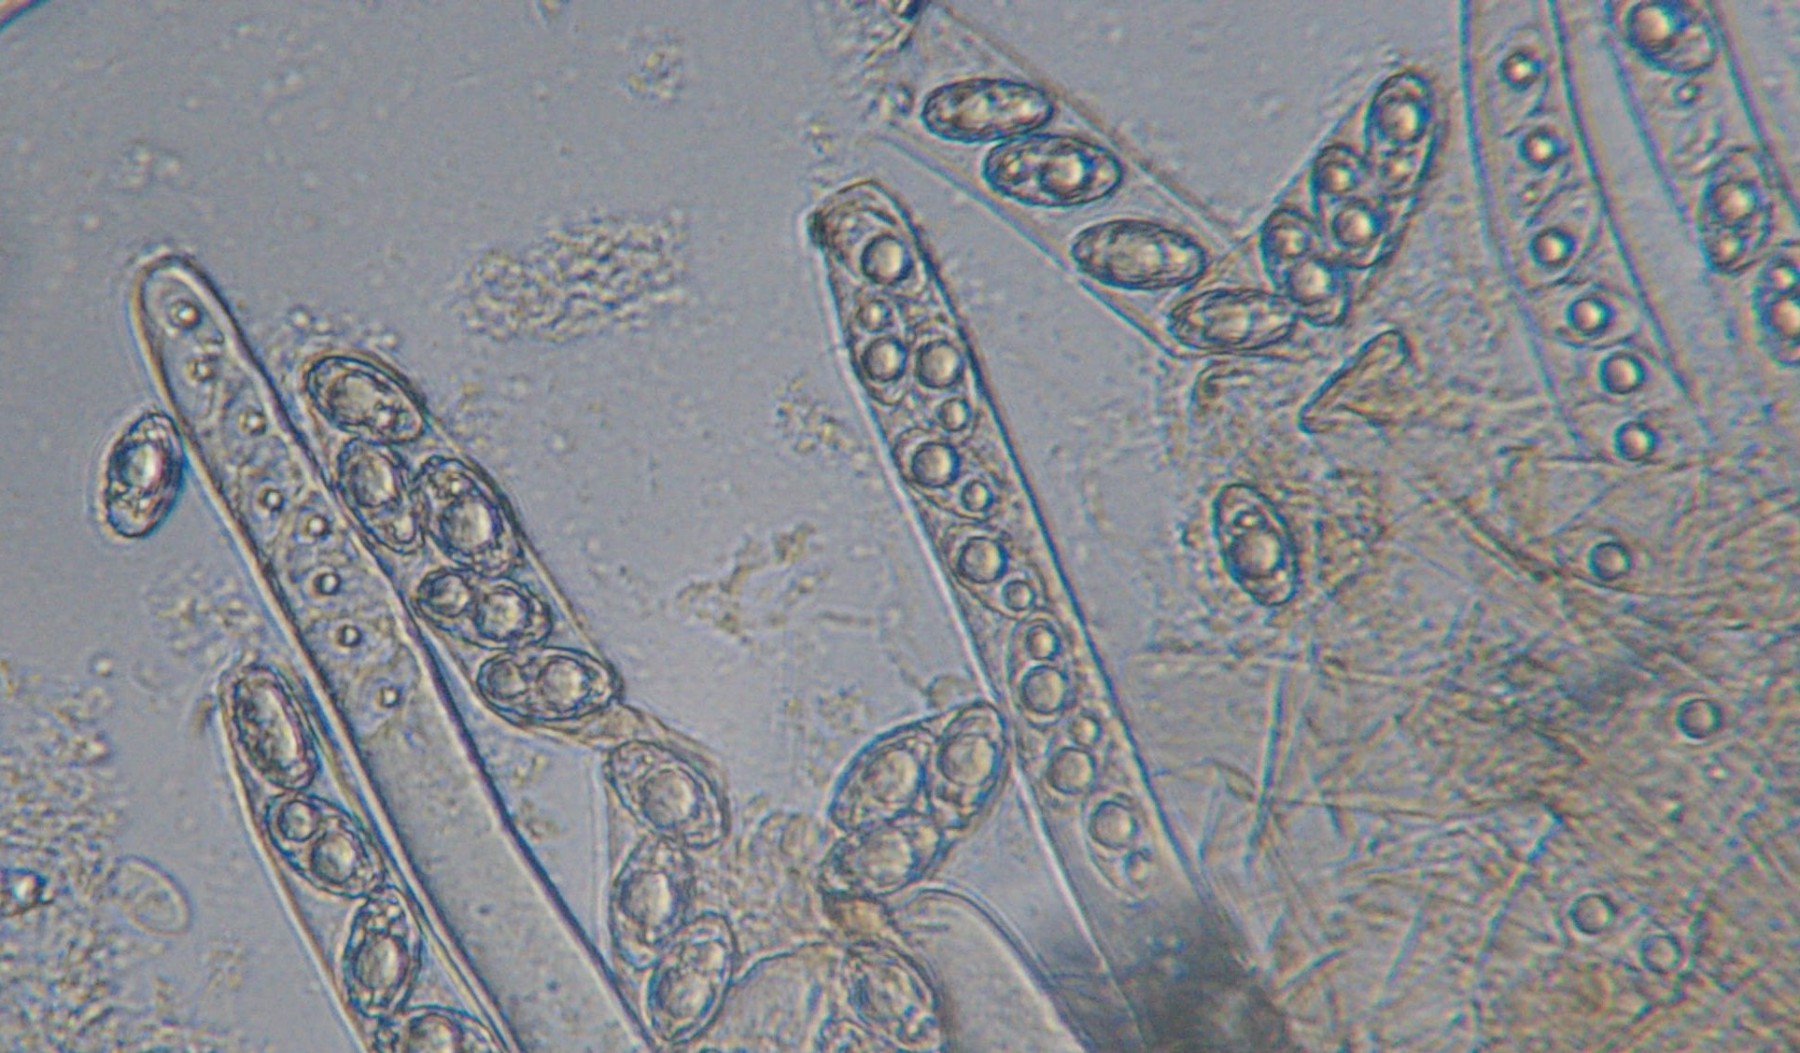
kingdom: Fungi
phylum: Ascomycota
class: Pezizomycetes
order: Pezizales
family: Pezizaceae
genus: Peziza
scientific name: Peziza
